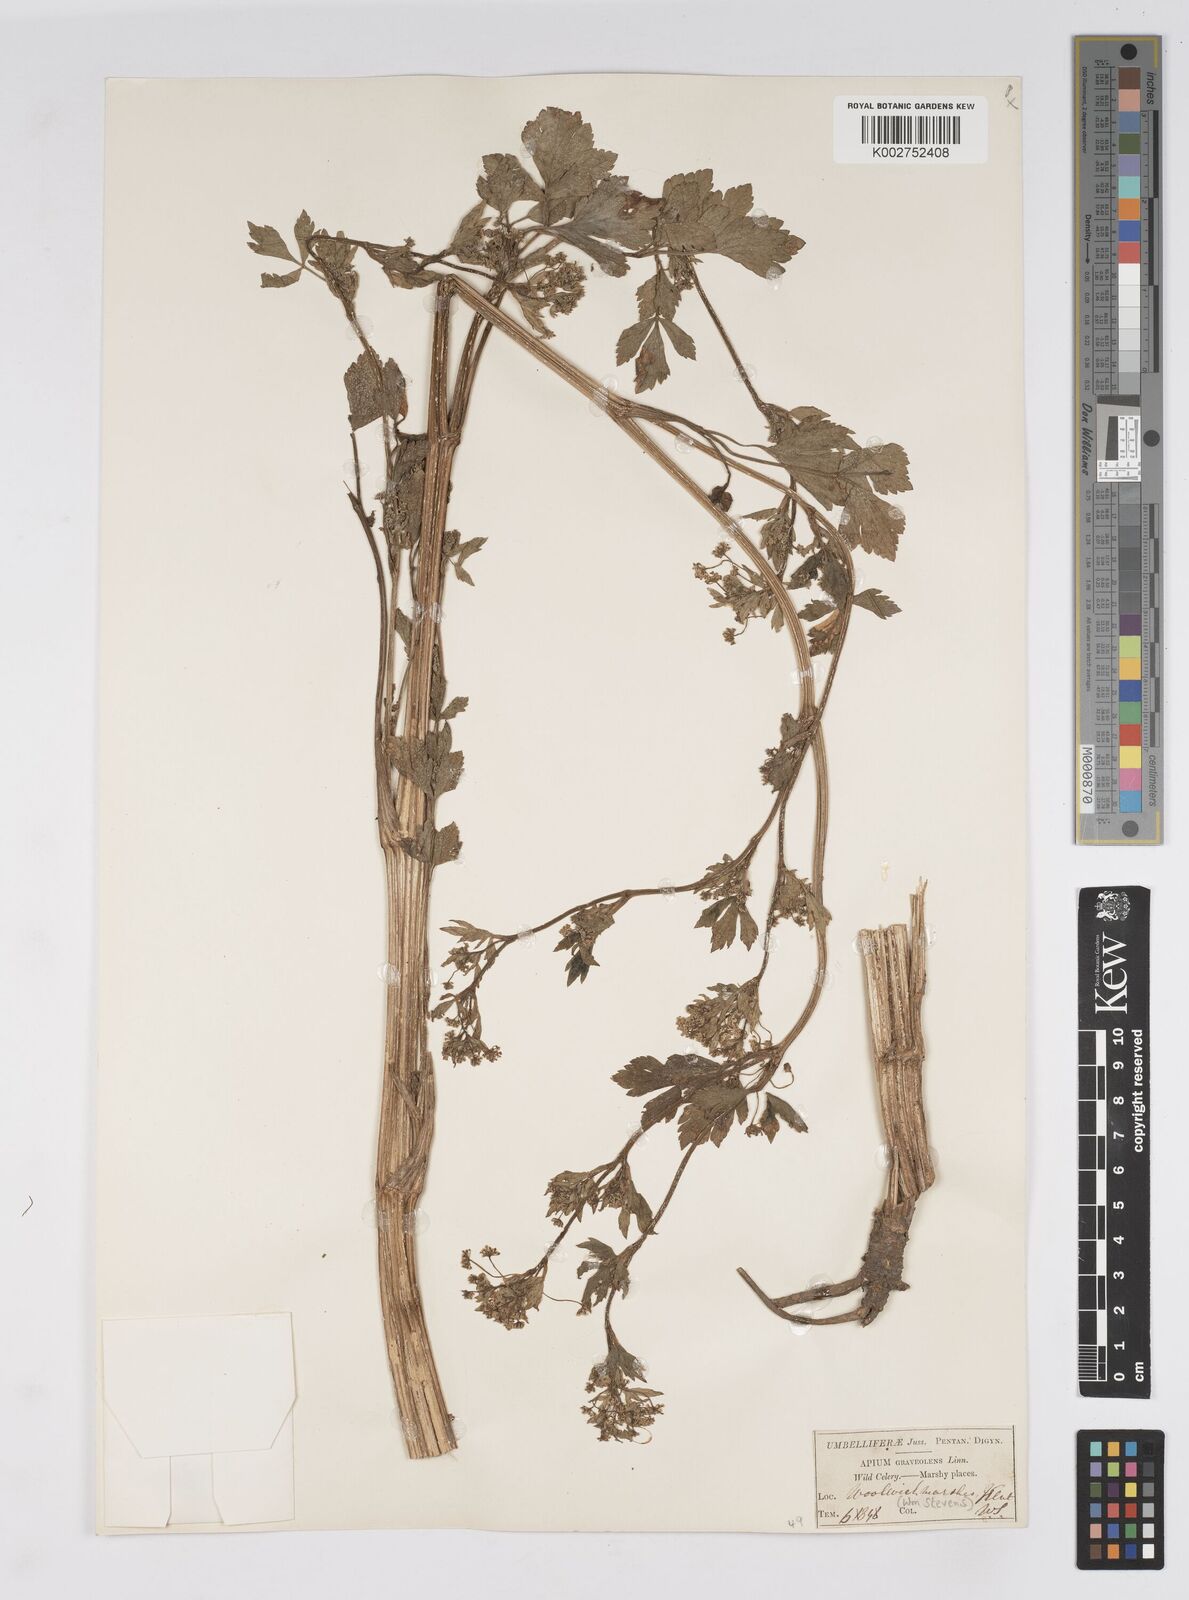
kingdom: Plantae
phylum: Tracheophyta
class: Magnoliopsida
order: Apiales
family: Apiaceae
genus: Apium
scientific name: Apium graveolens
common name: Wild celery
